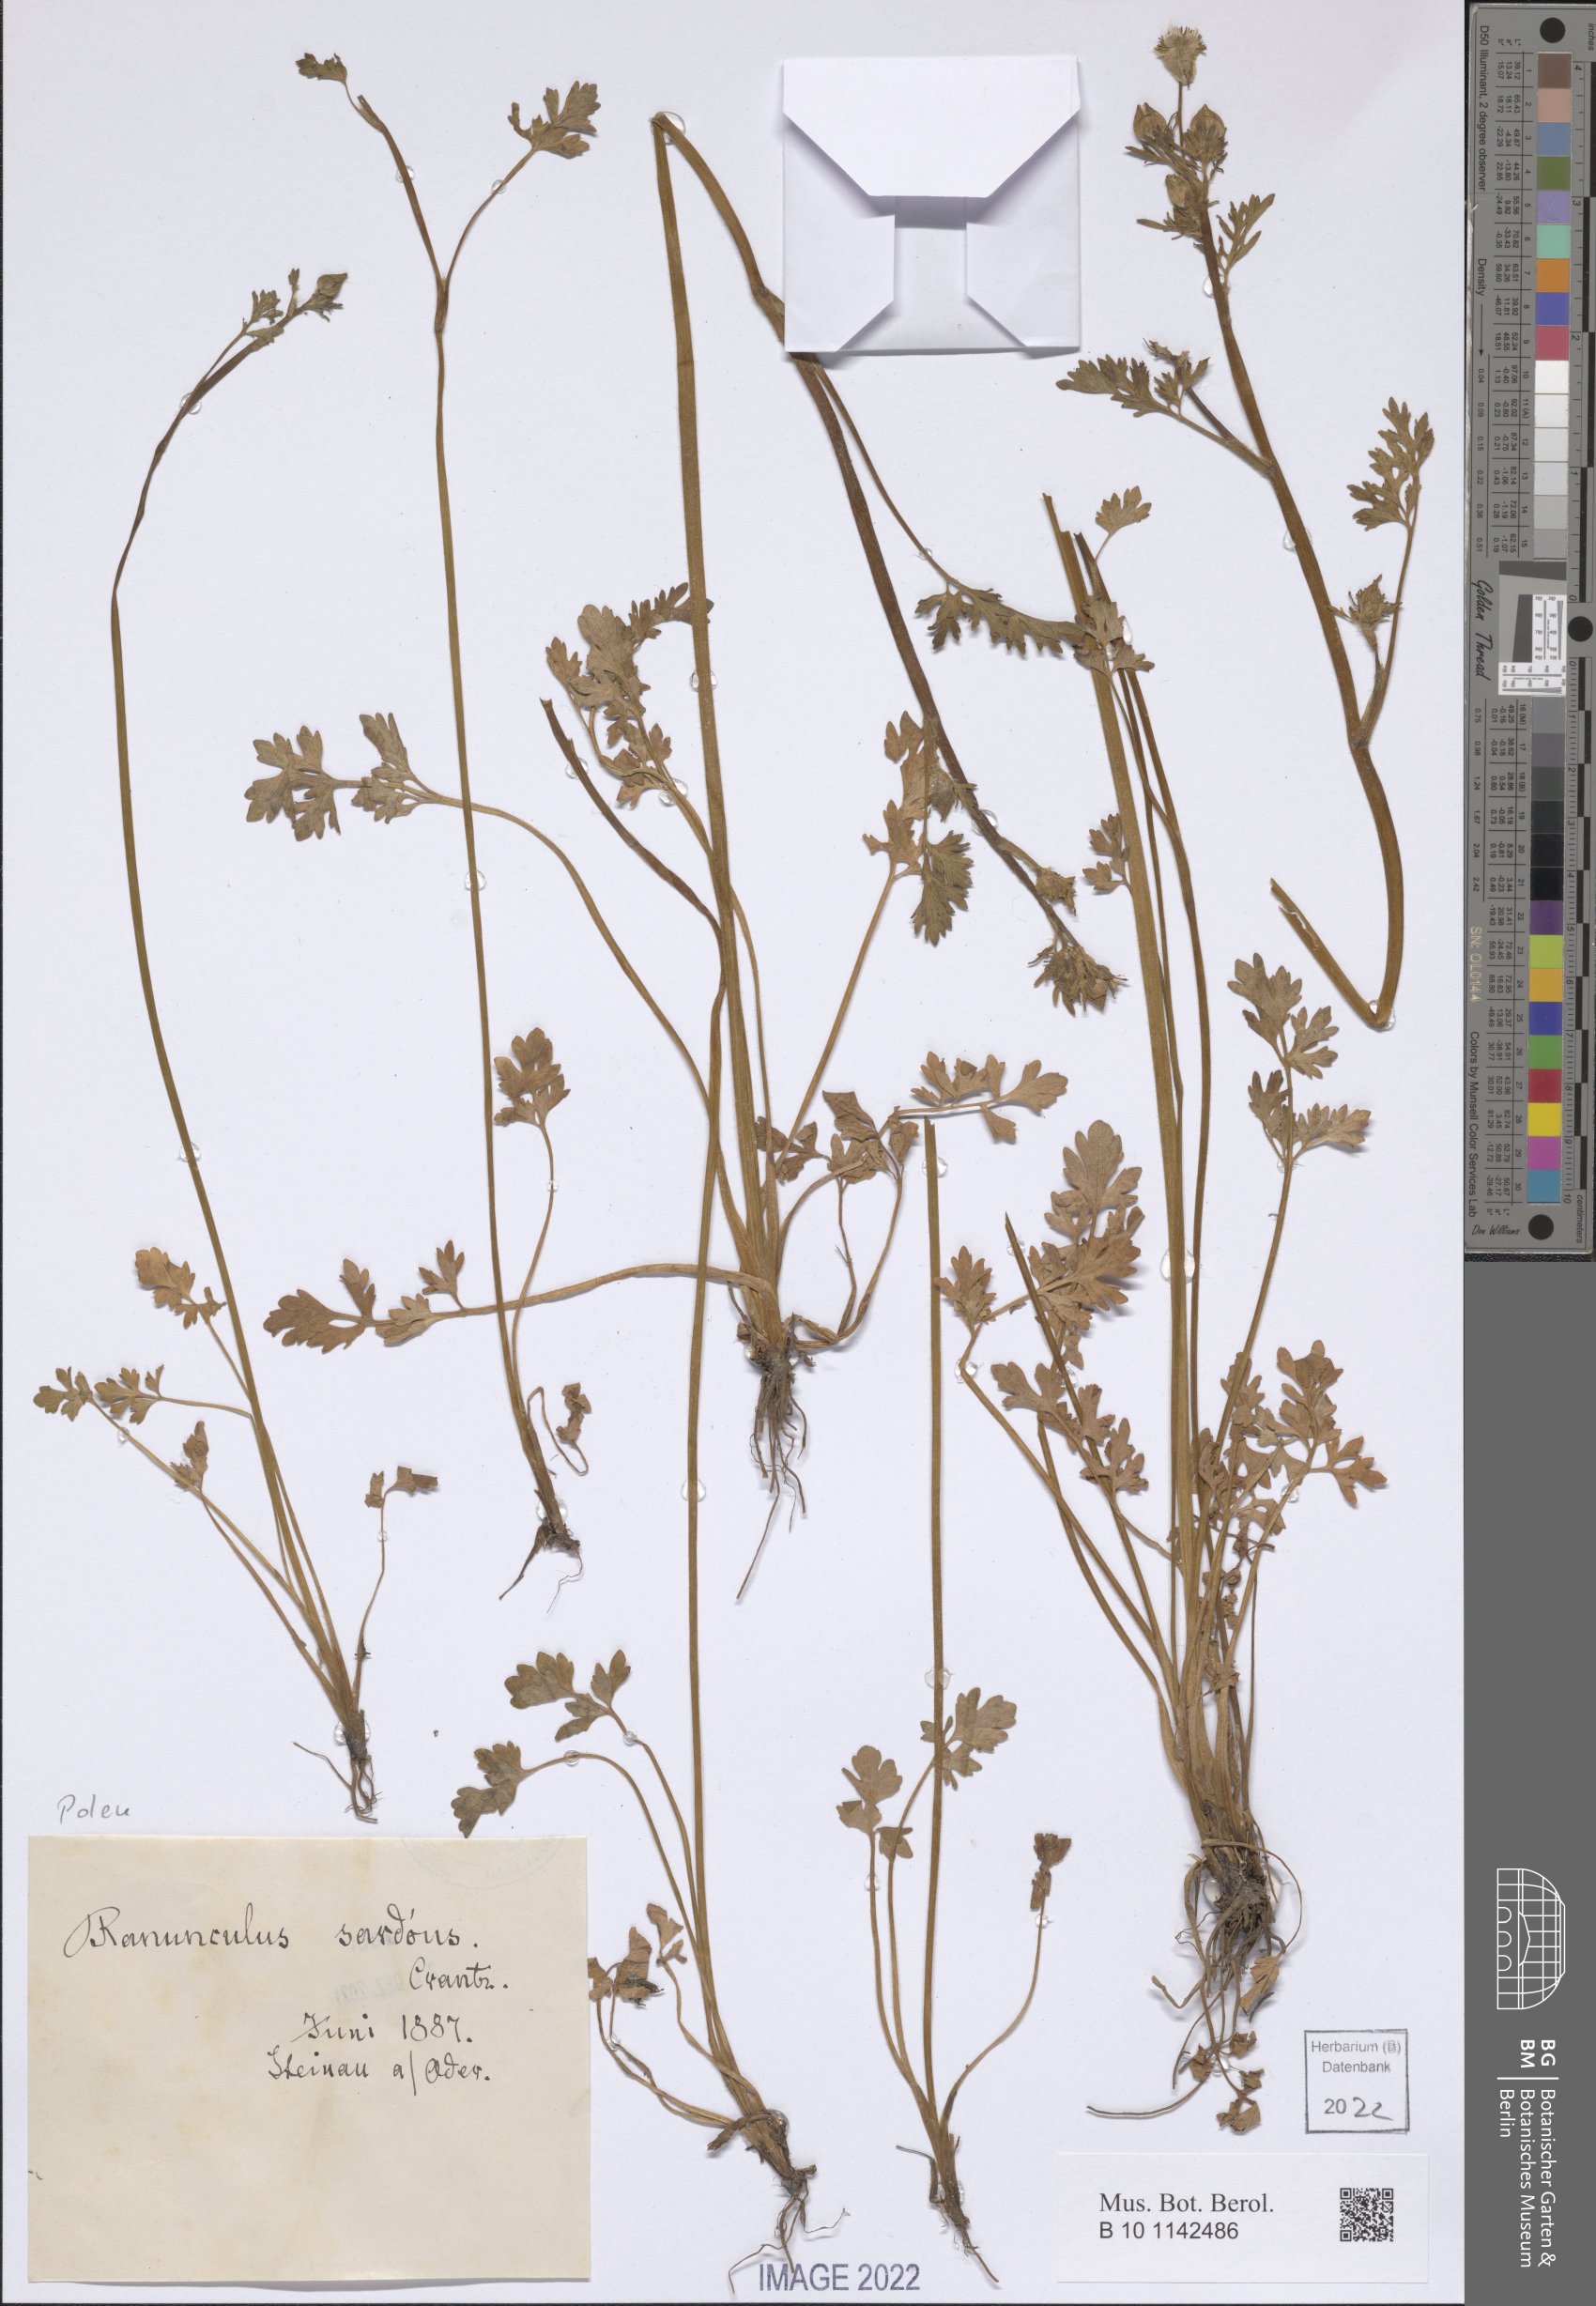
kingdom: Plantae
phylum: Tracheophyta
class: Magnoliopsida
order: Ranunculales
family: Ranunculaceae
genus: Ranunculus
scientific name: Ranunculus sardous
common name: Hairy buttercup
